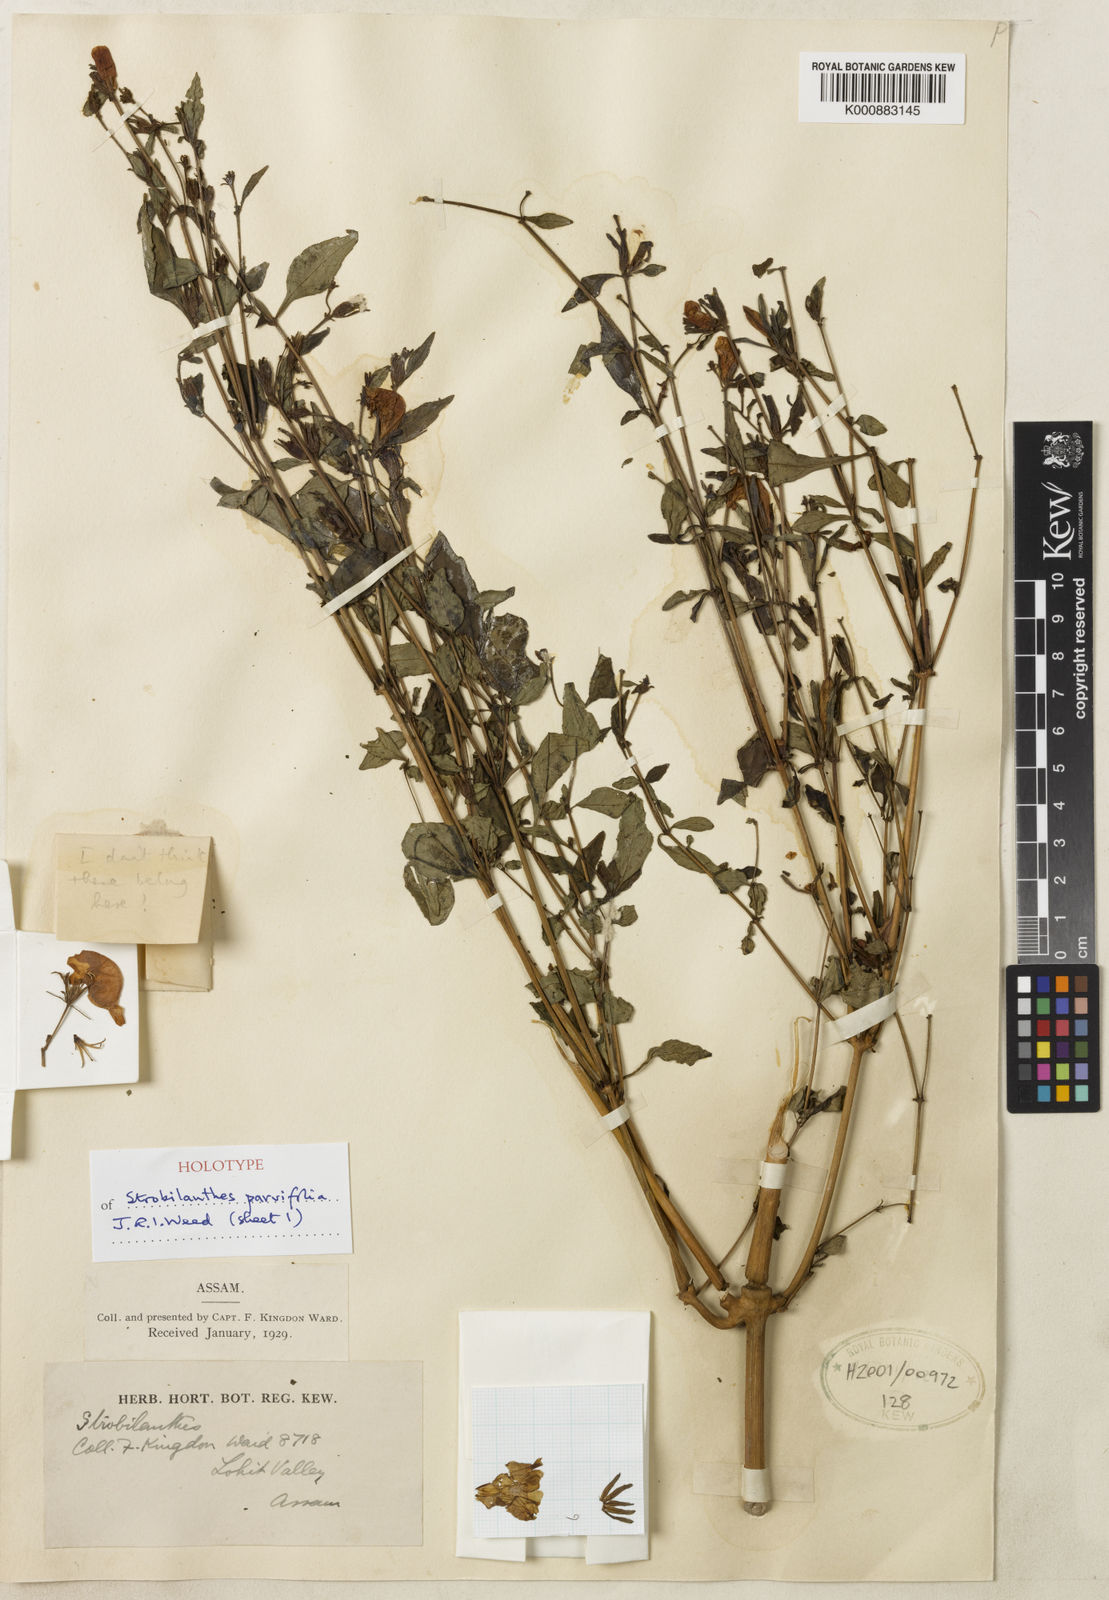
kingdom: Plantae
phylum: Tracheophyta
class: Magnoliopsida
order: Lamiales
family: Acanthaceae
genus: Strobilanthes
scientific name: Strobilanthes parvifolia
